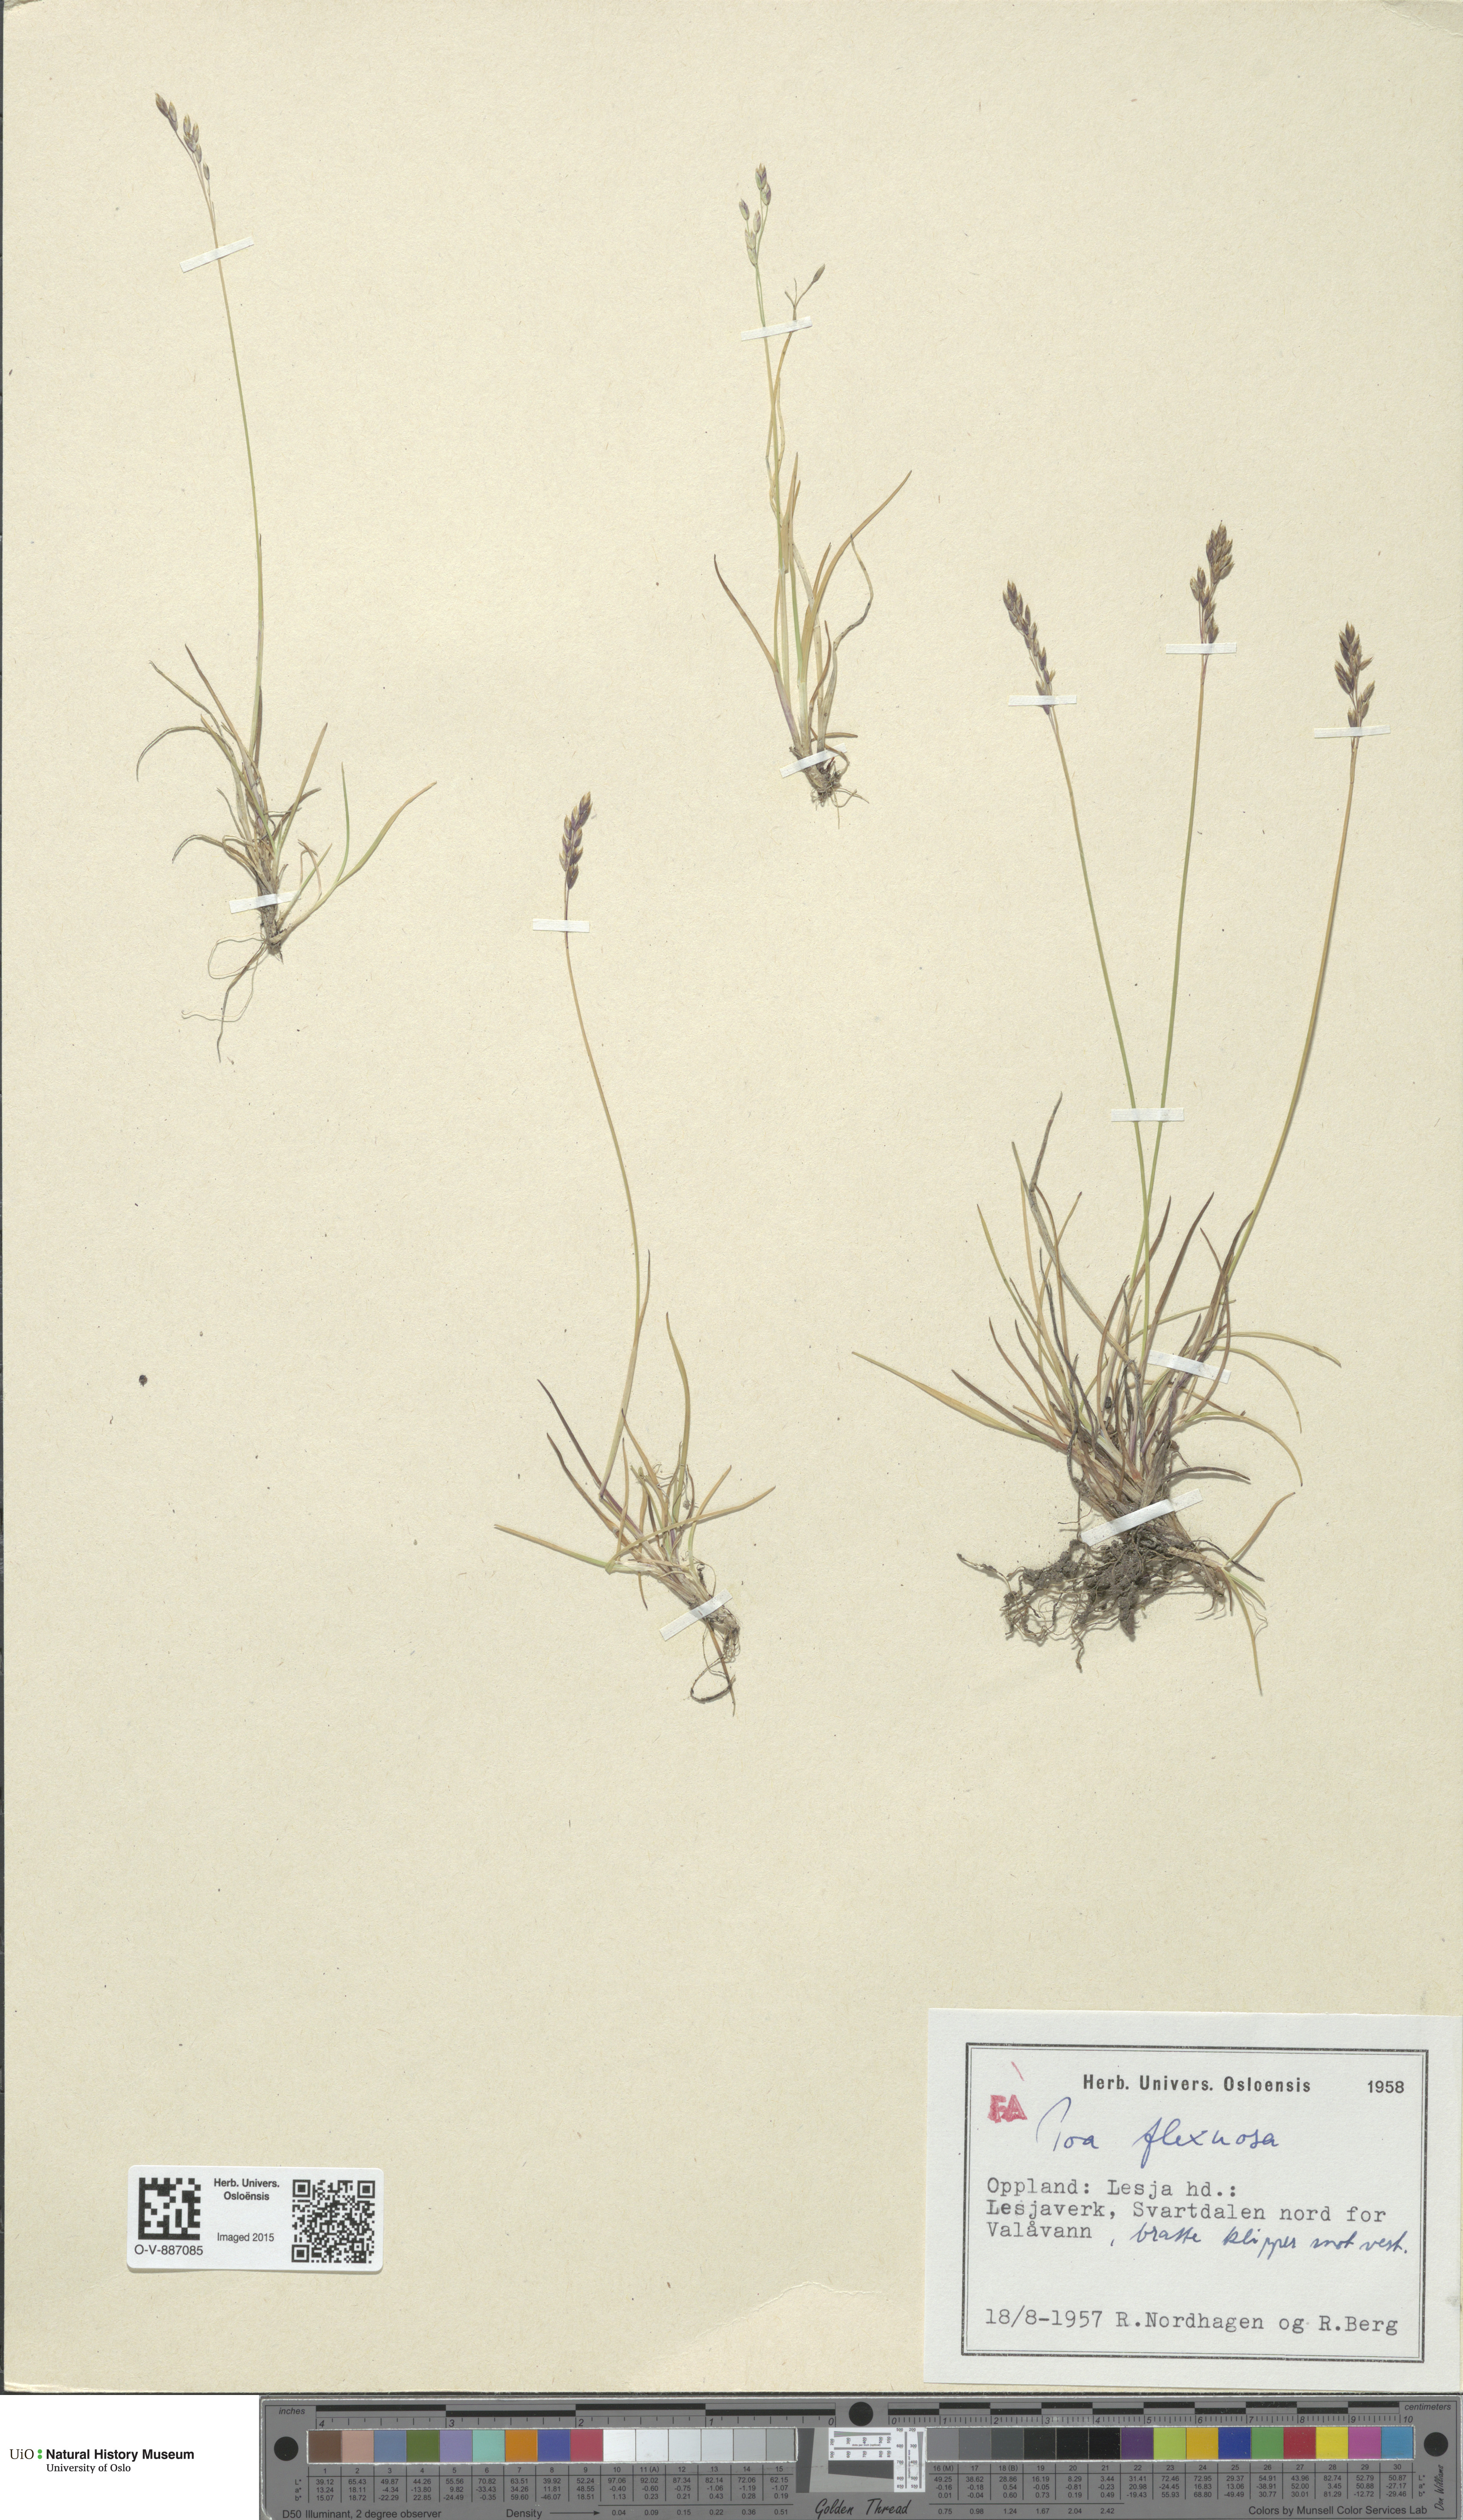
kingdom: Plantae
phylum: Tracheophyta
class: Liliopsida
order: Poales
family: Poaceae
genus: Poa
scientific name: Poa flexuosa
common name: Wavy meadow-grass
